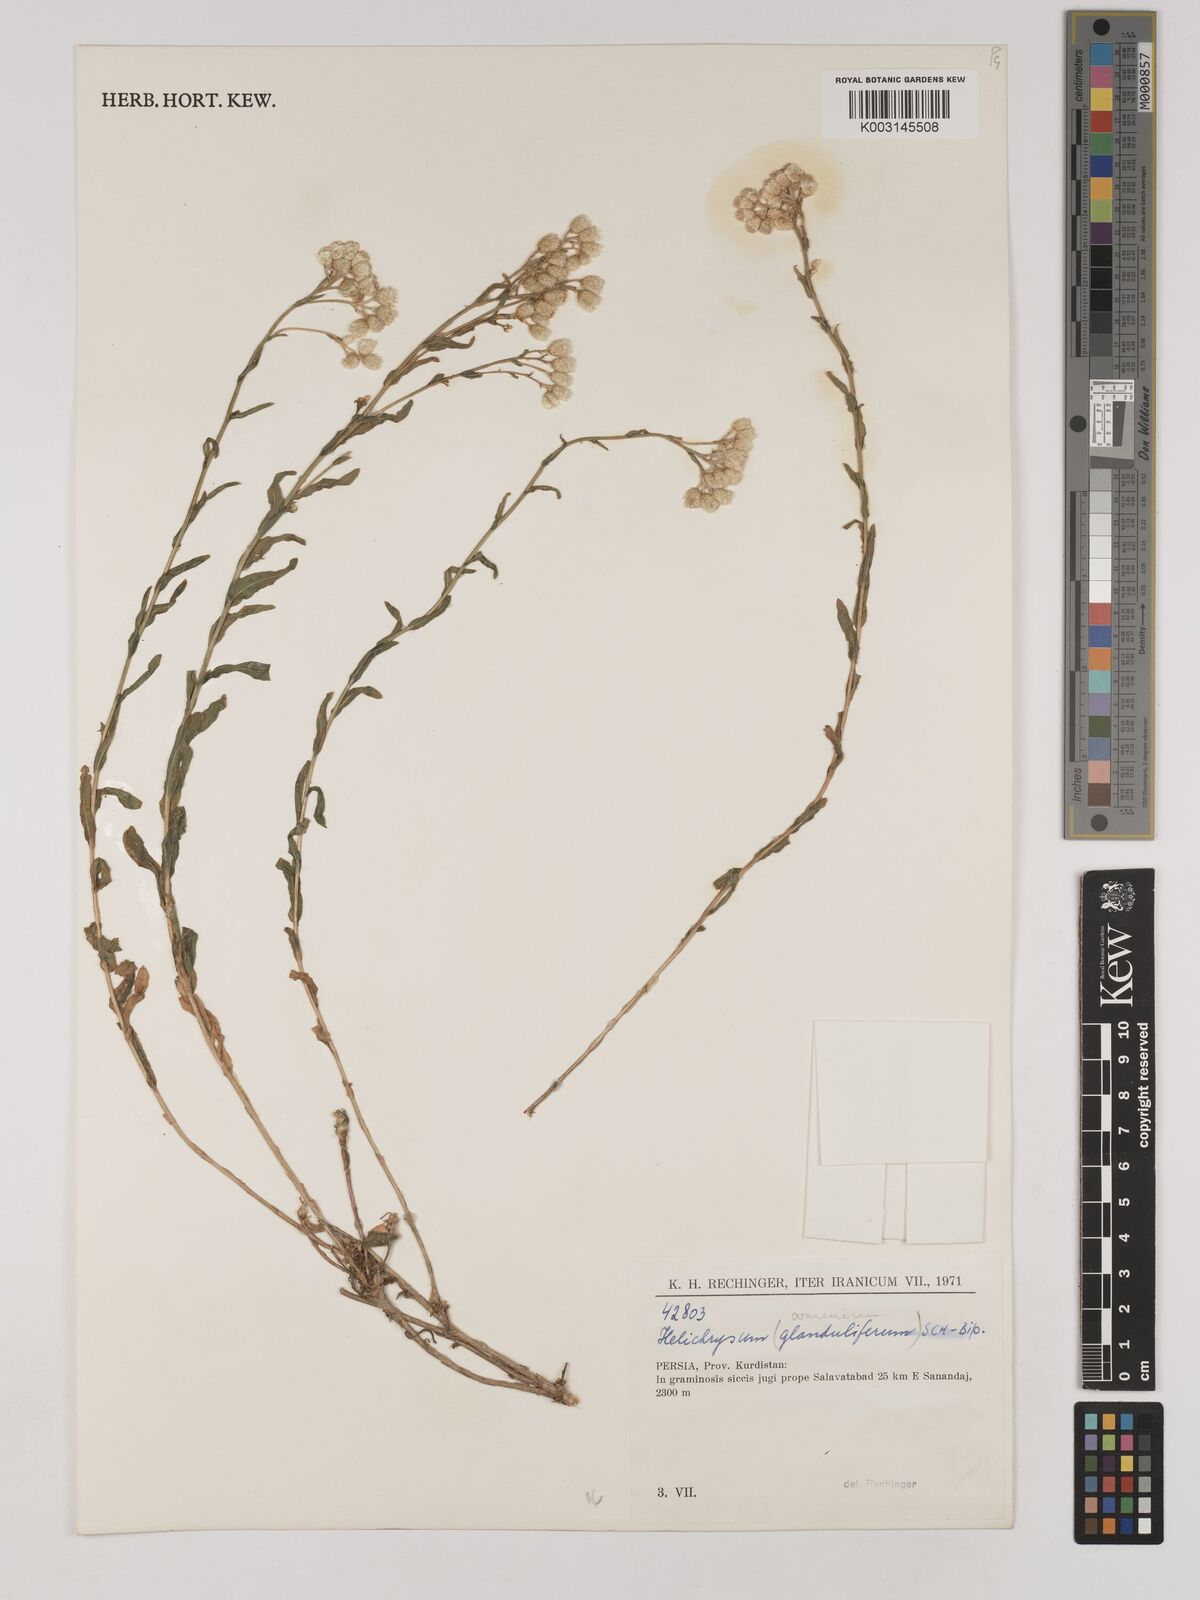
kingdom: Plantae
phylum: Tracheophyta
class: Magnoliopsida
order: Asterales
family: Asteraceae
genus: Helichrysum
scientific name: Helichrysum armenium
